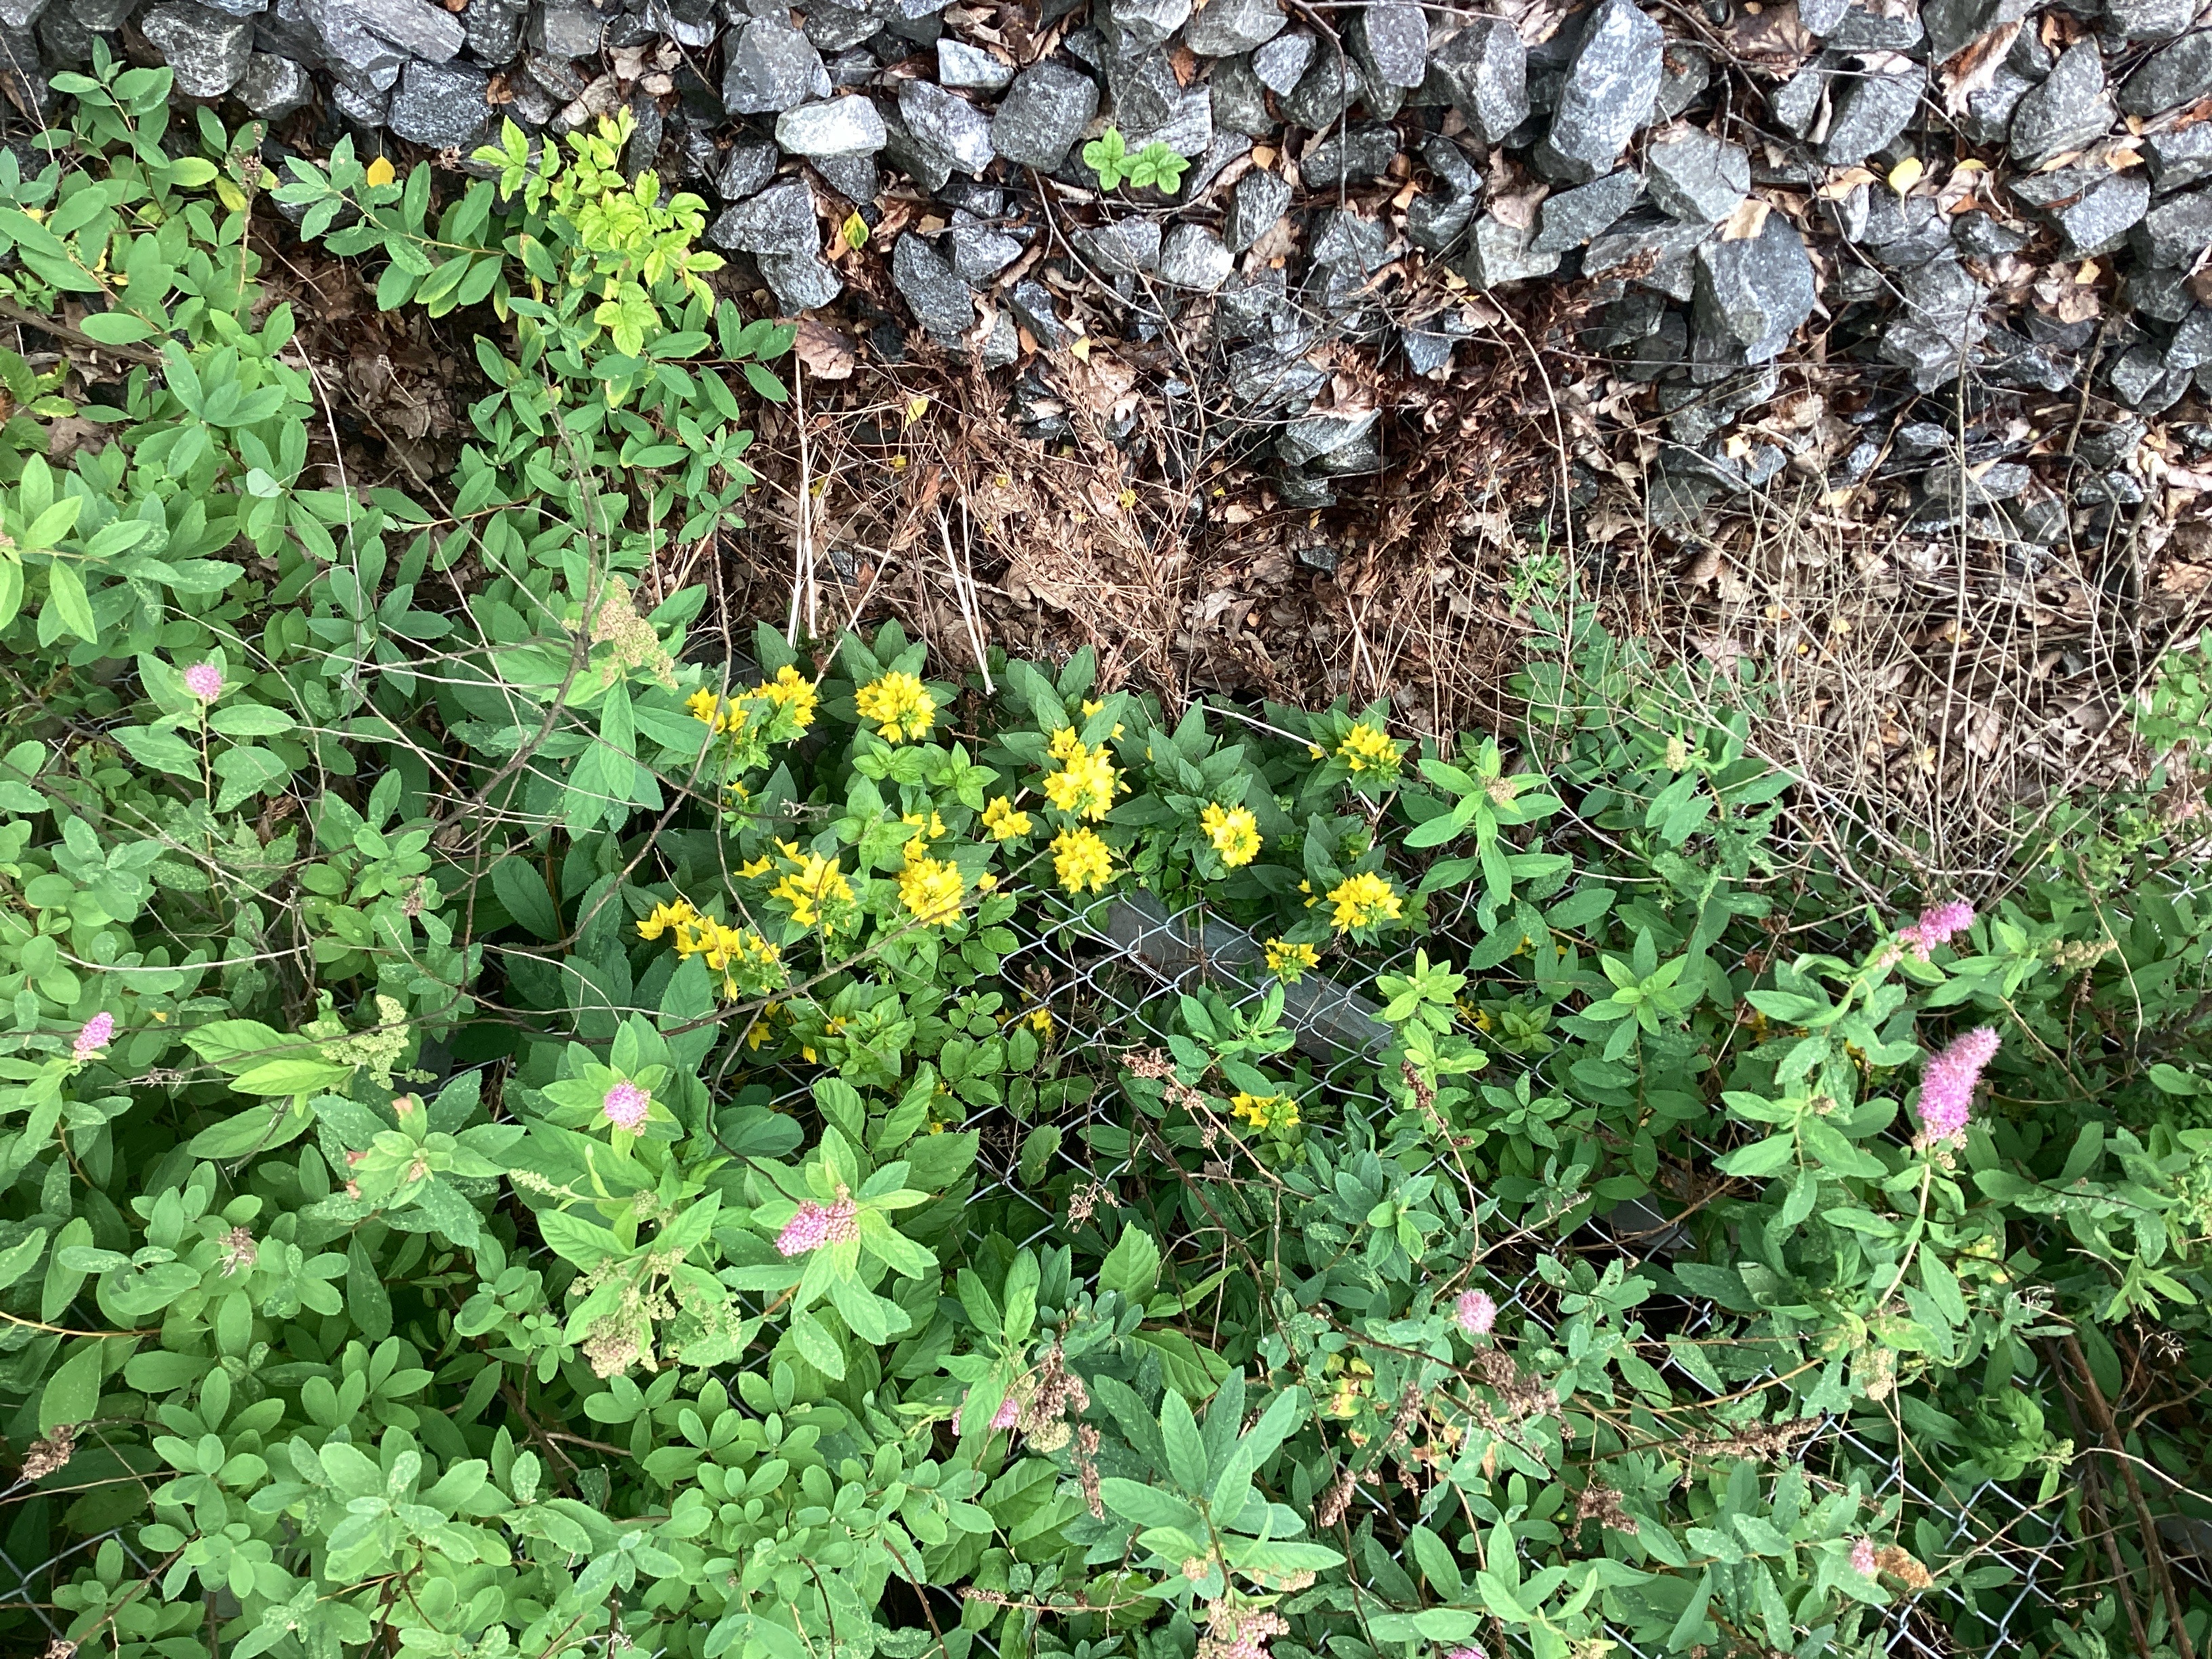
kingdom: Plantae
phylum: Tracheophyta
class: Magnoliopsida
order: Ericales
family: Primulaceae
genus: Lysimachia
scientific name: Lysimachia punctata
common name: fagerfredløs
